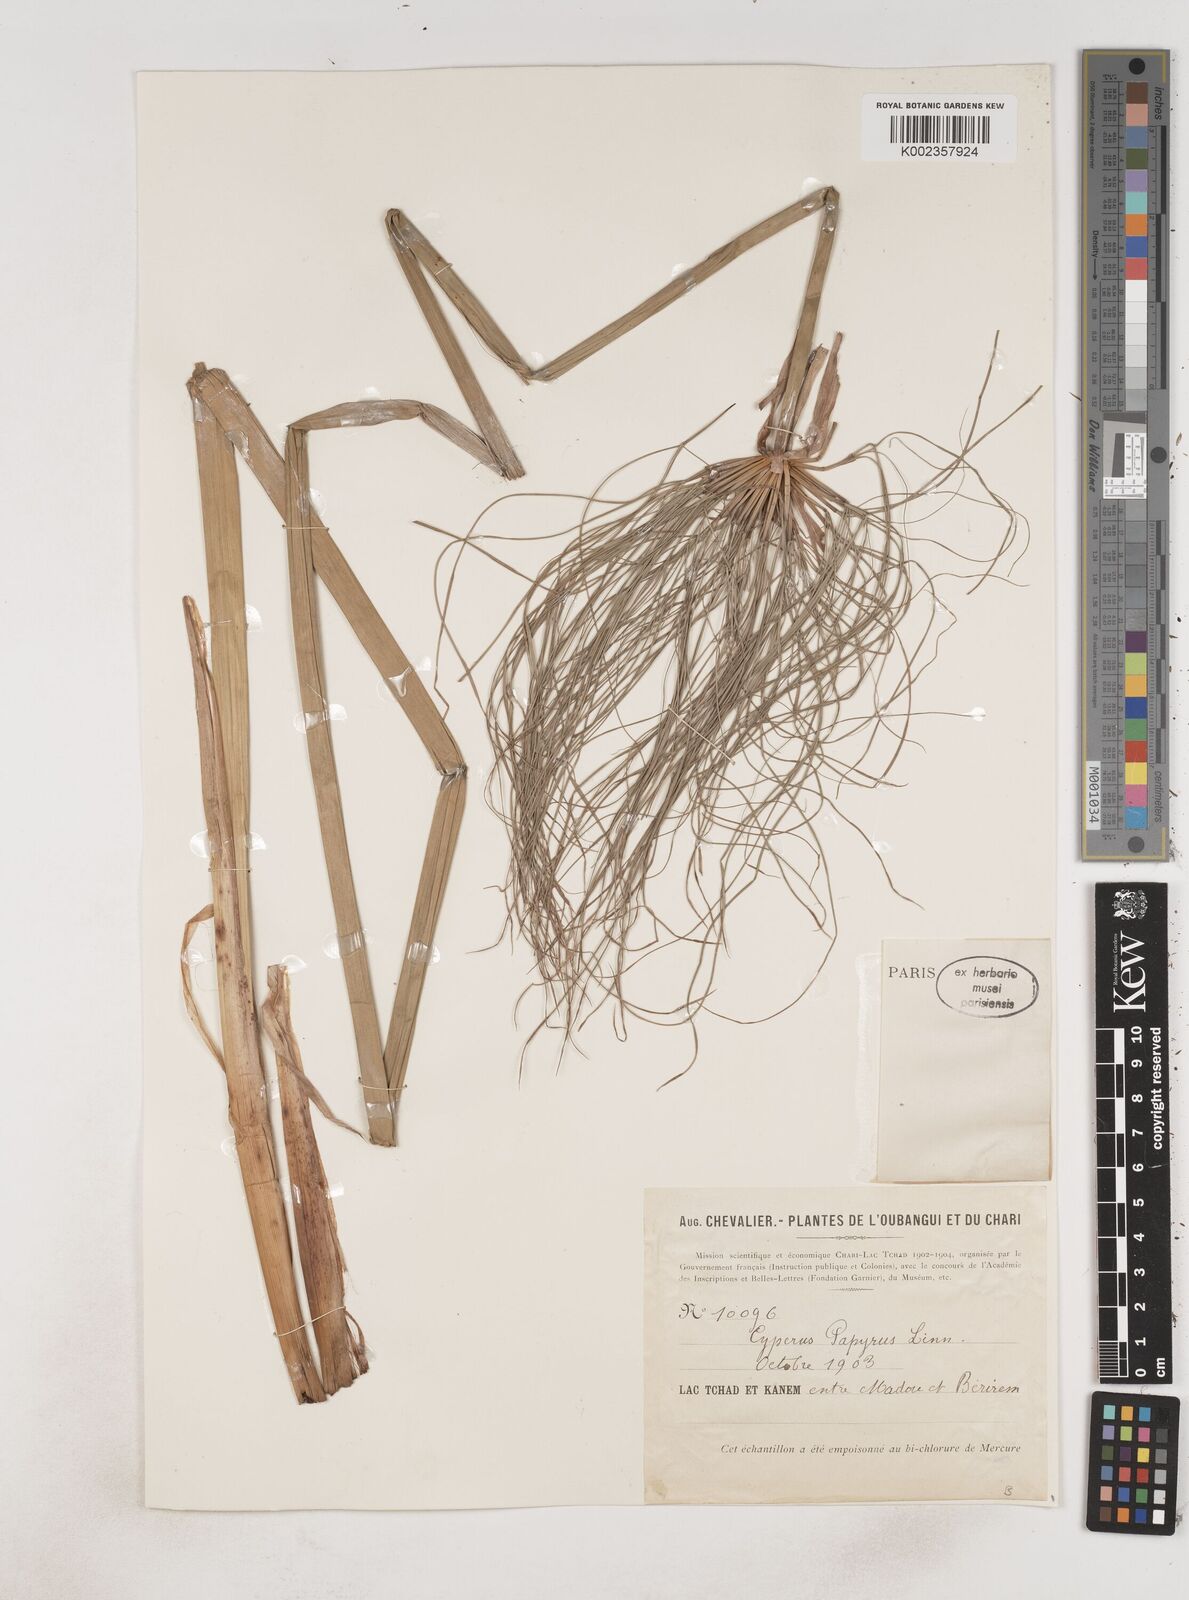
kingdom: Plantae
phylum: Tracheophyta
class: Liliopsida
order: Poales
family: Cyperaceae
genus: Cyperus
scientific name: Cyperus papyrus
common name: Papyrus
